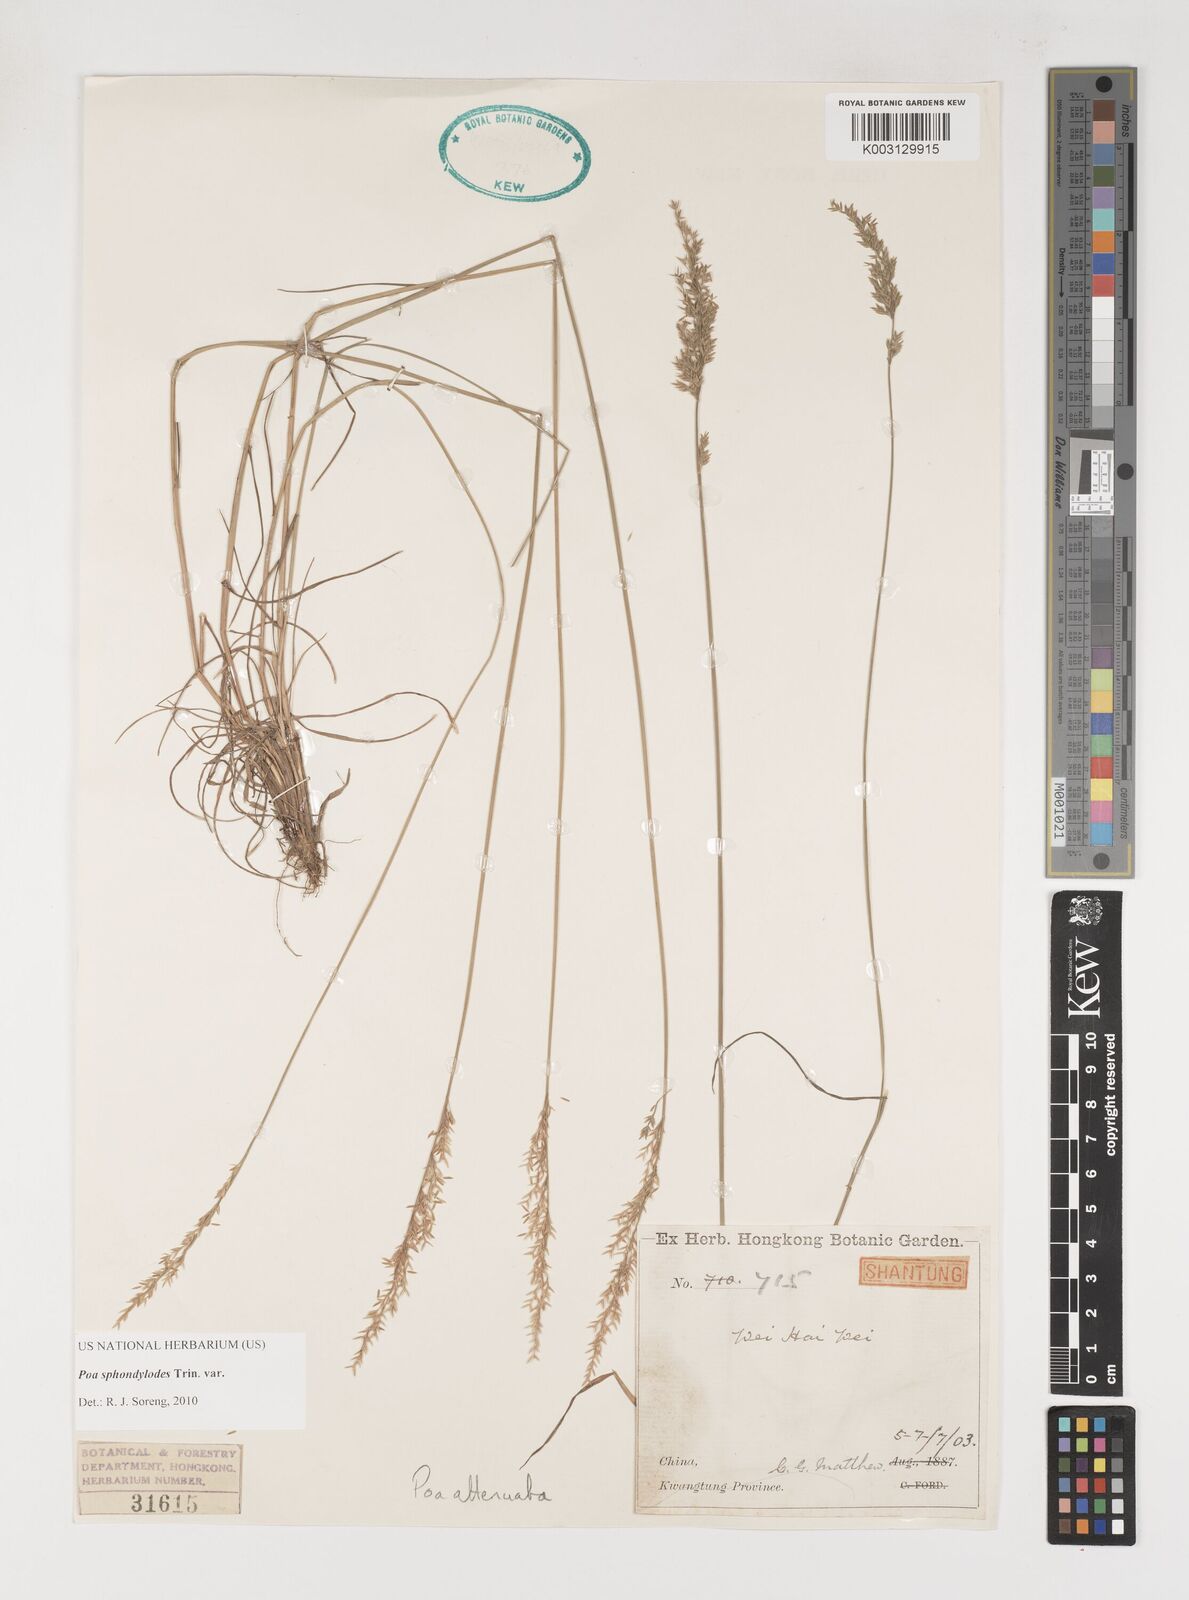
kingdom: Plantae
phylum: Tracheophyta
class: Liliopsida
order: Poales
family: Poaceae
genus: Poa
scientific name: Poa sphondylodes
